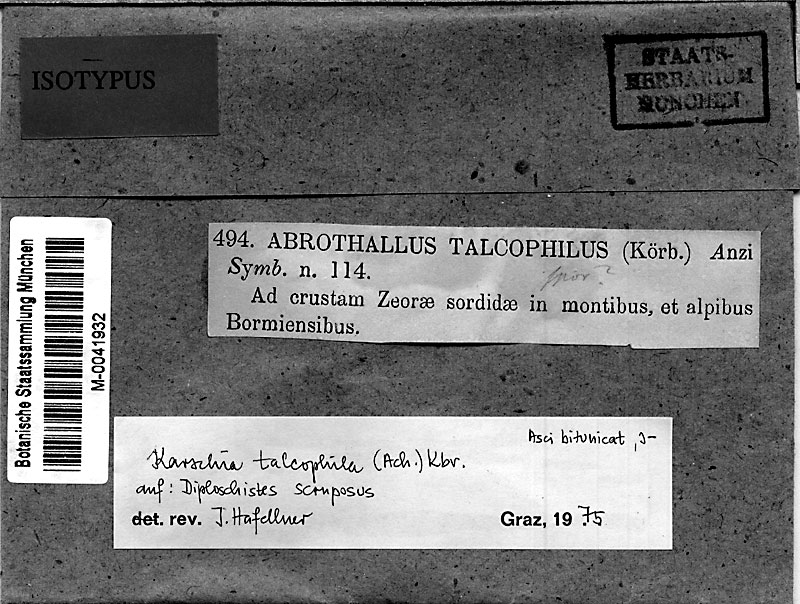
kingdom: Fungi
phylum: Ascomycota
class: Dothideomycetes
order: Dothideales
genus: Karschia
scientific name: Karschia anziana
